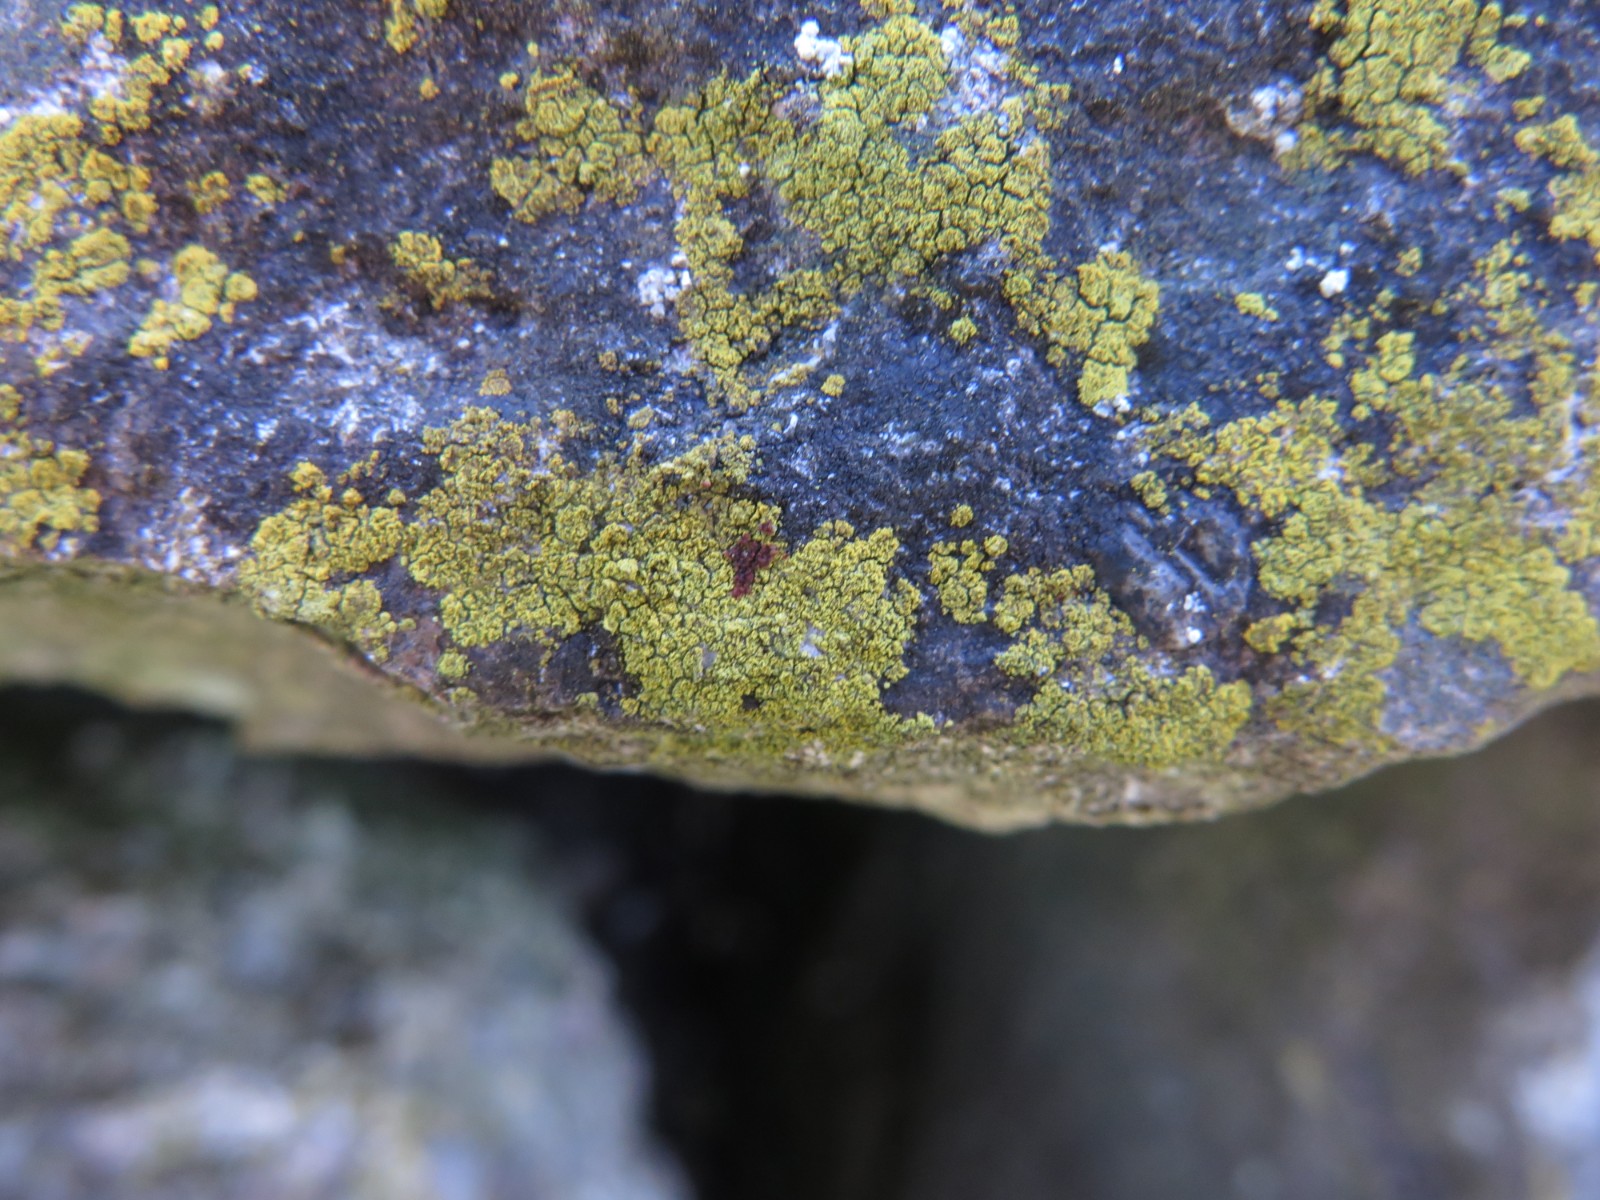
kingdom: Fungi
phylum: Ascomycota
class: Lecanoromycetes
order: Teloschistales
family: Teloschistaceae
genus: Flavoplaca
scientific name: Flavoplaca flavocitrina
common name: grynskællet orangelav
